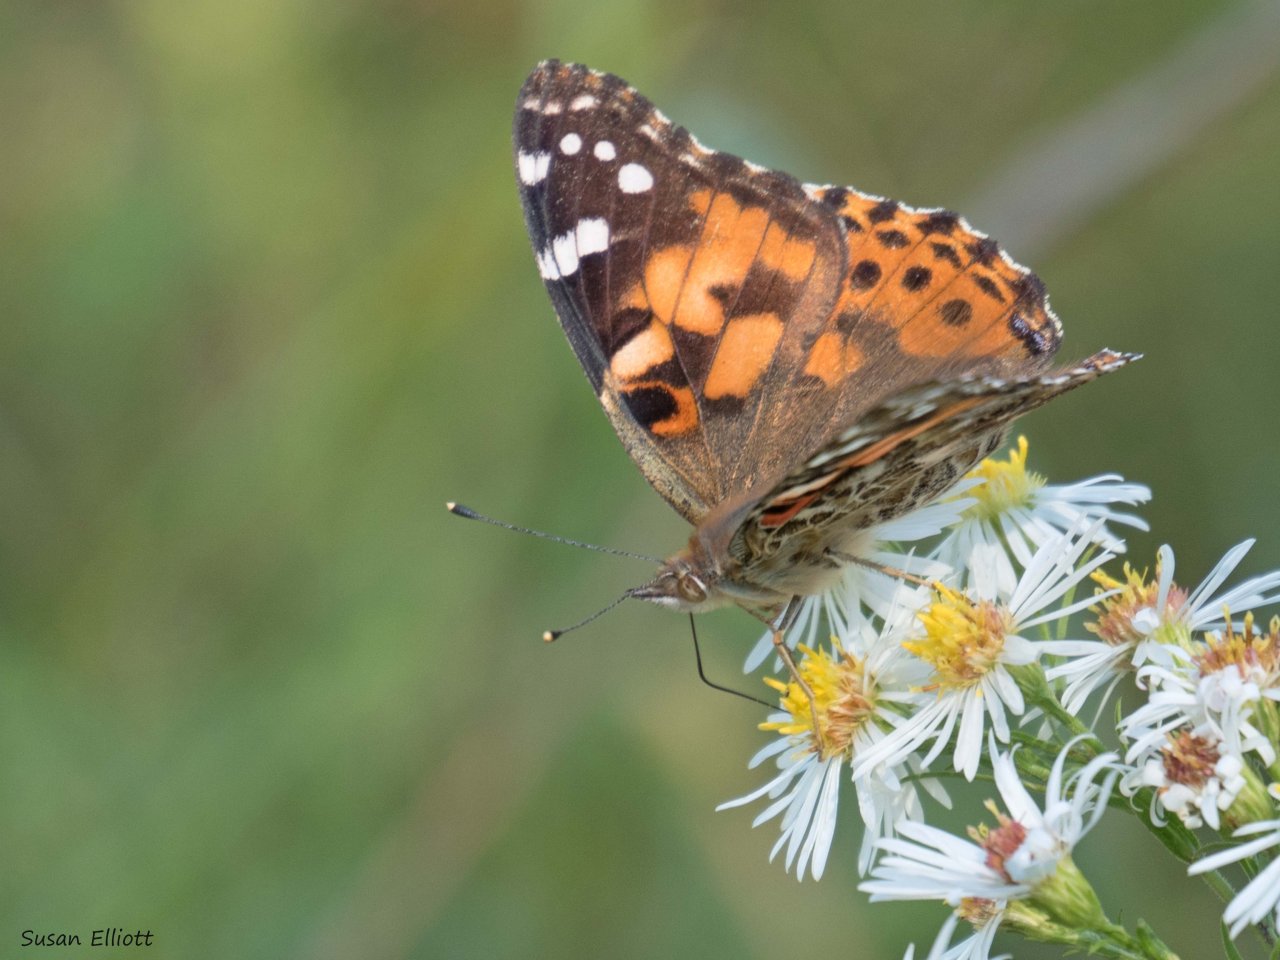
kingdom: Animalia
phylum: Arthropoda
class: Insecta
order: Lepidoptera
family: Nymphalidae
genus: Vanessa
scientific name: Vanessa cardui
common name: Painted Lady
